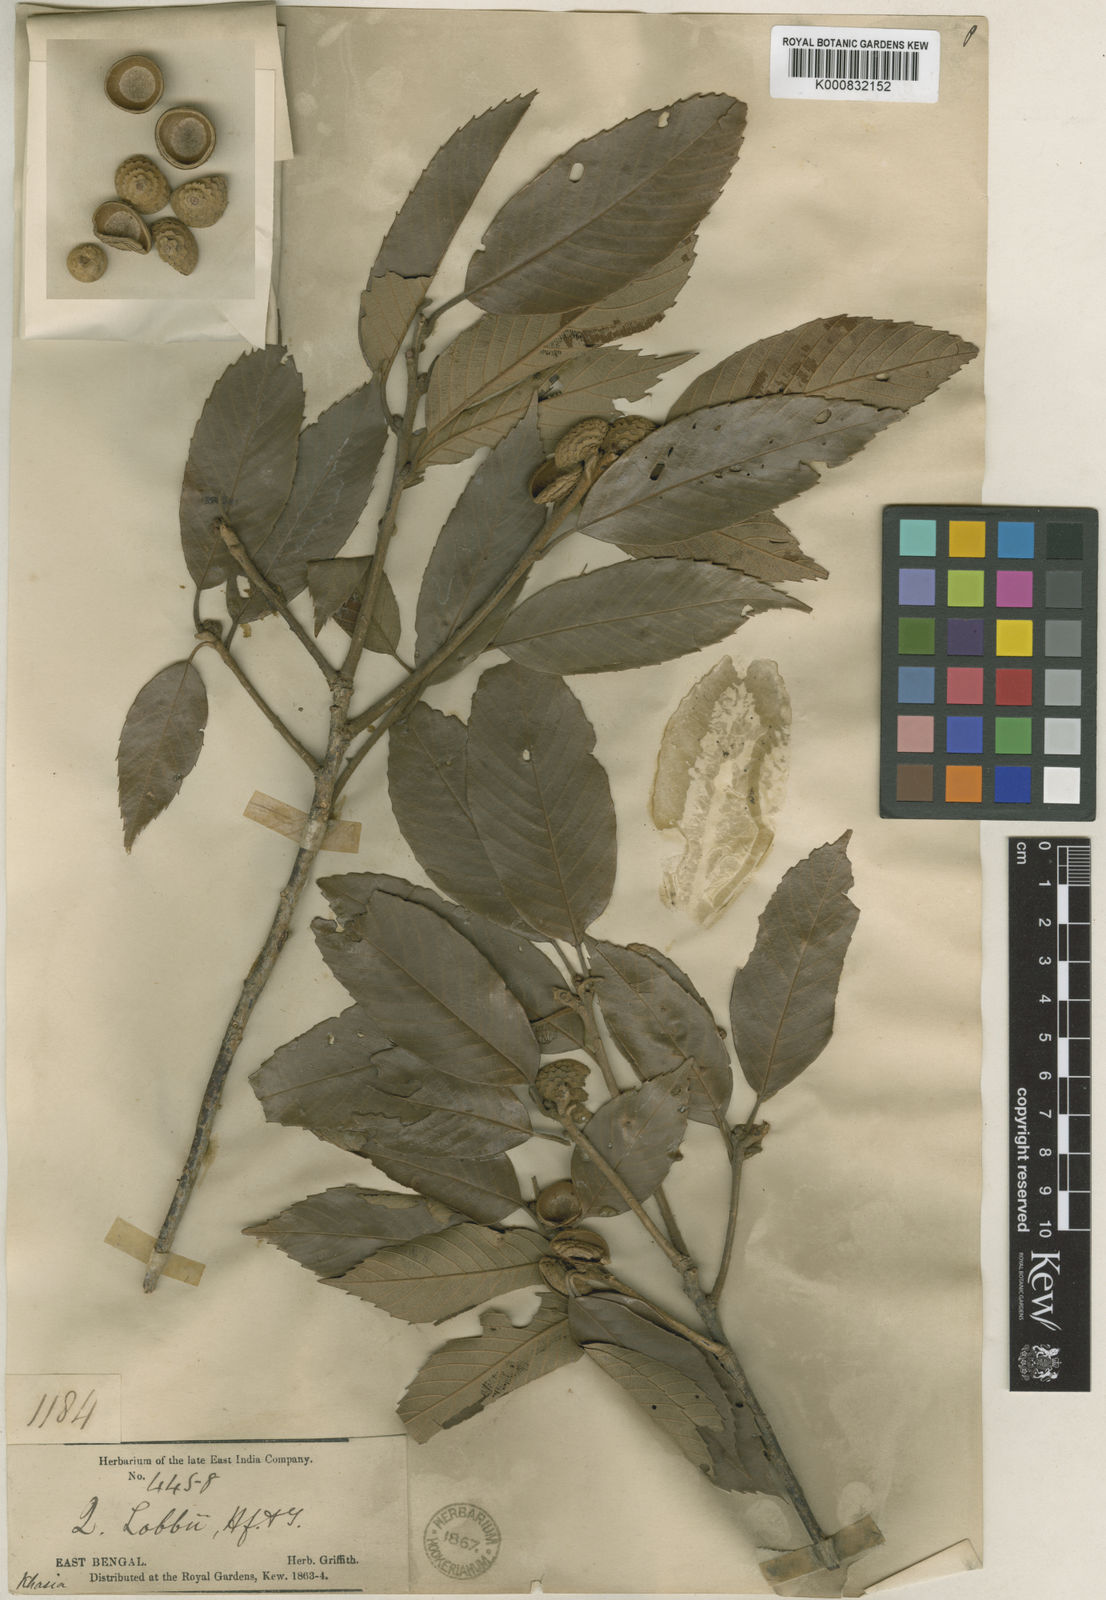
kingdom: Plantae
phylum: Tracheophyta
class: Magnoliopsida
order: Fagales
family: Fagaceae
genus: Quercus
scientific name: Quercus lobbii
